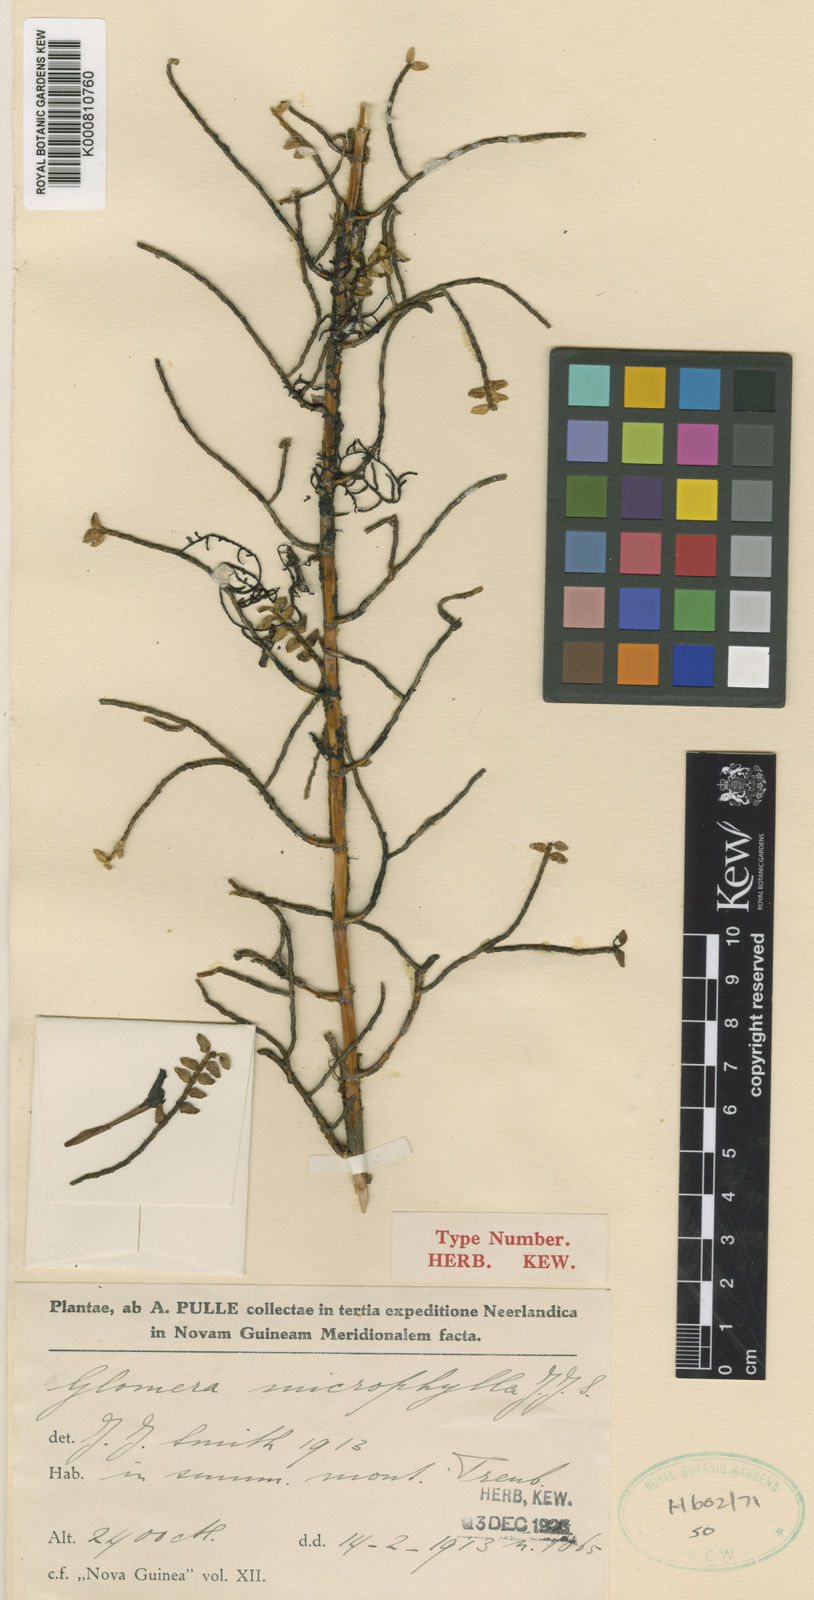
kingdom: Plantae
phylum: Tracheophyta
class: Liliopsida
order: Asparagales
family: Orchidaceae
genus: Glomera
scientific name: Glomera microphylla
